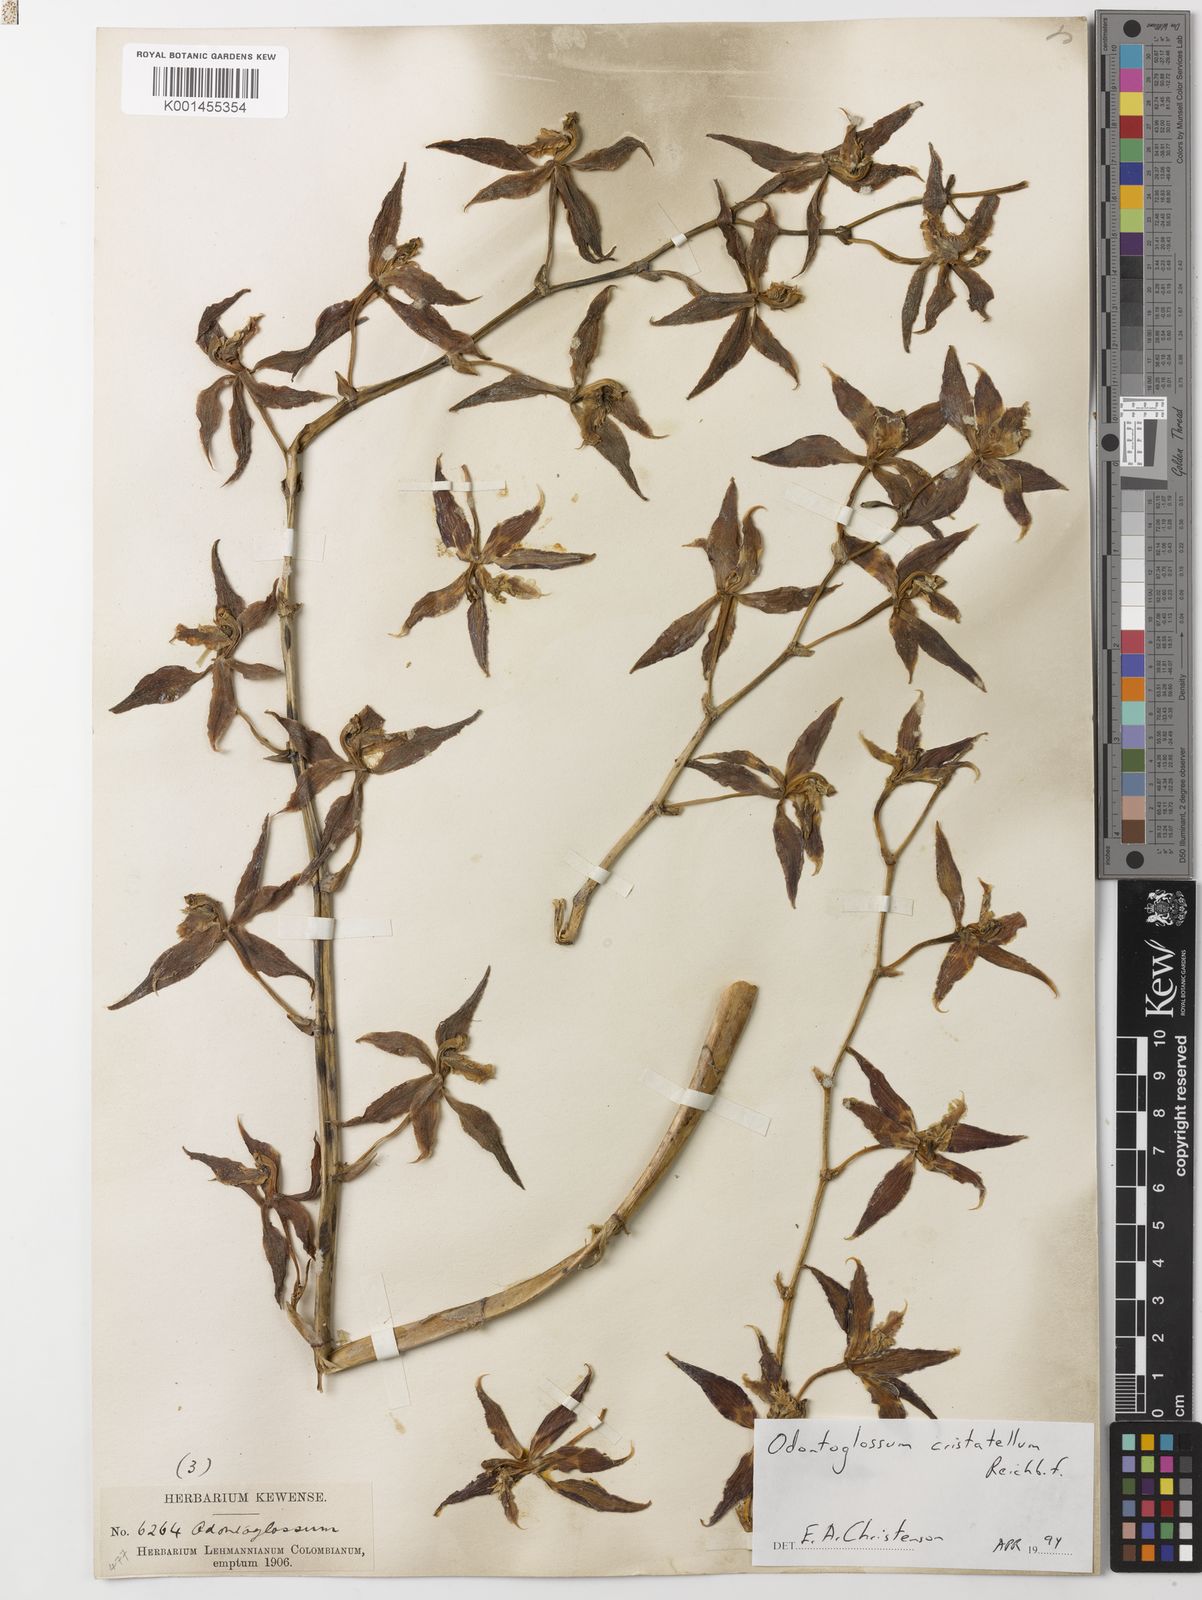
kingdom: Plantae
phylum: Tracheophyta
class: Liliopsida
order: Asparagales
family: Orchidaceae
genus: Oncidium
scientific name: Oncidium lehmannii
